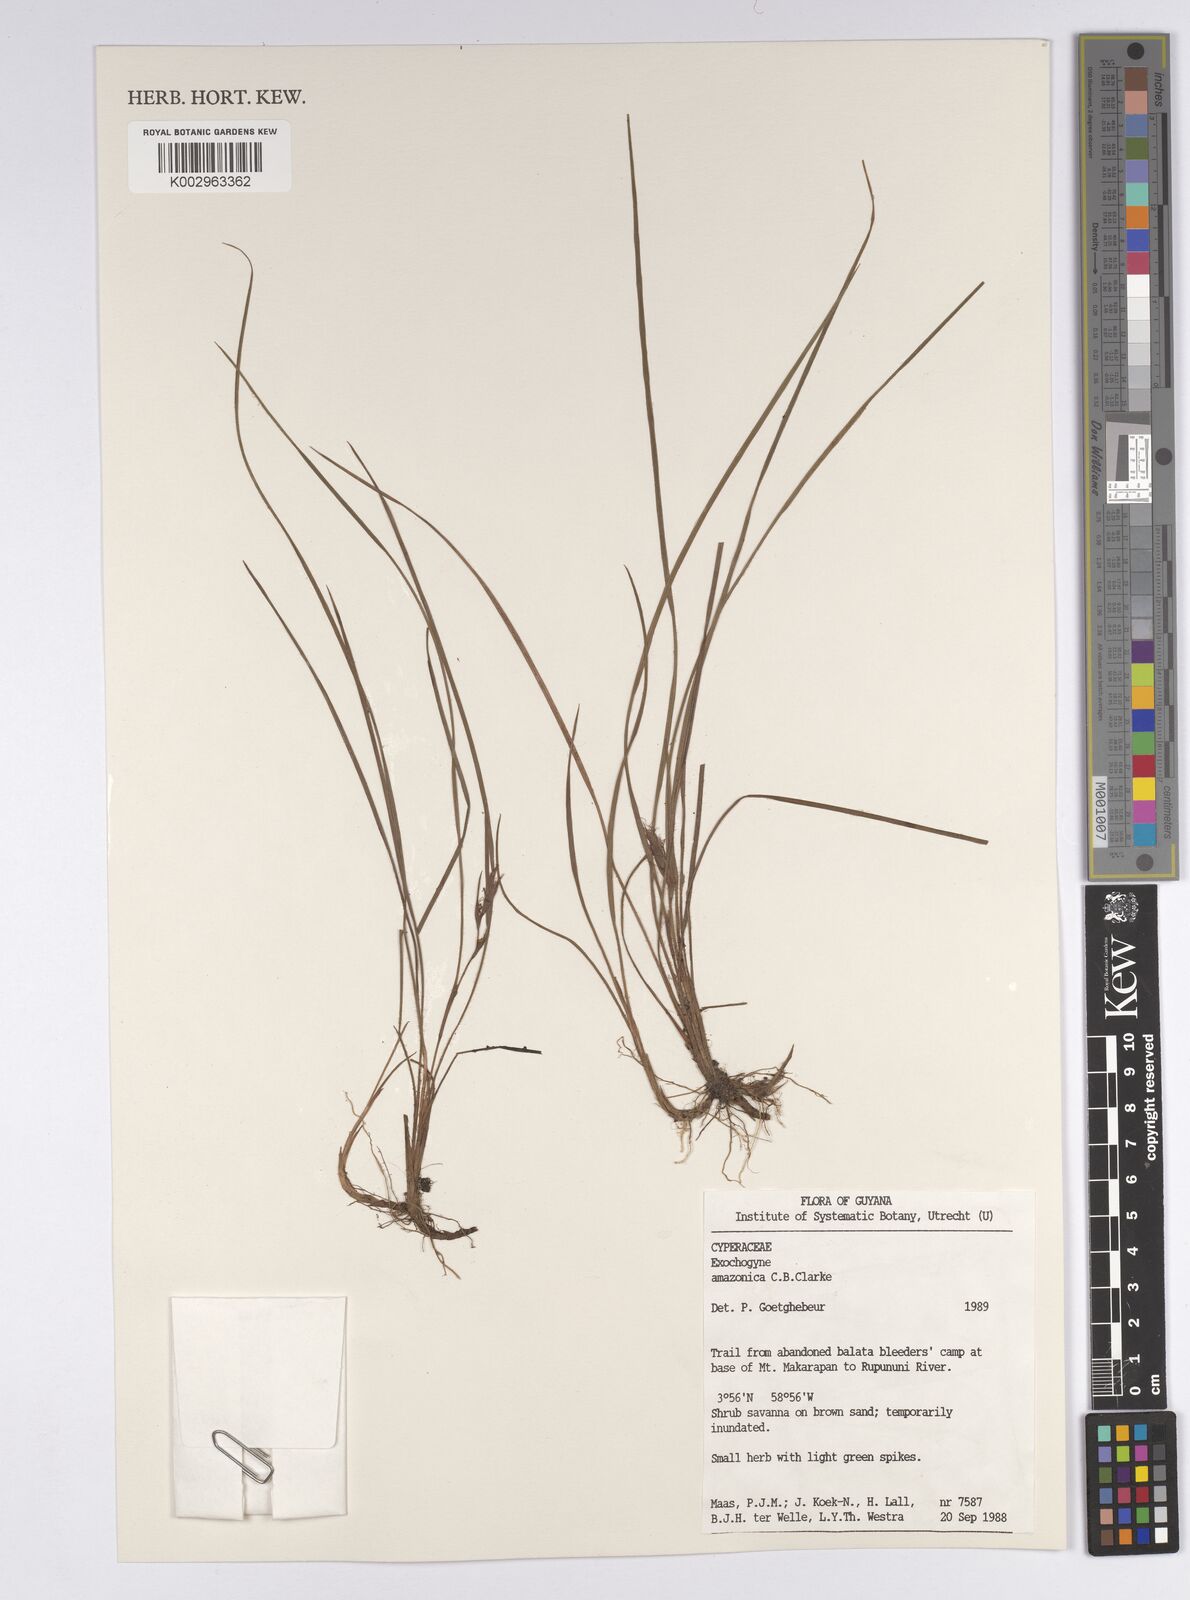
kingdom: Plantae
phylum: Tracheophyta
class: Liliopsida
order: Poales
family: Cyperaceae
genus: Exochogyne
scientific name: Exochogyne amazonica
